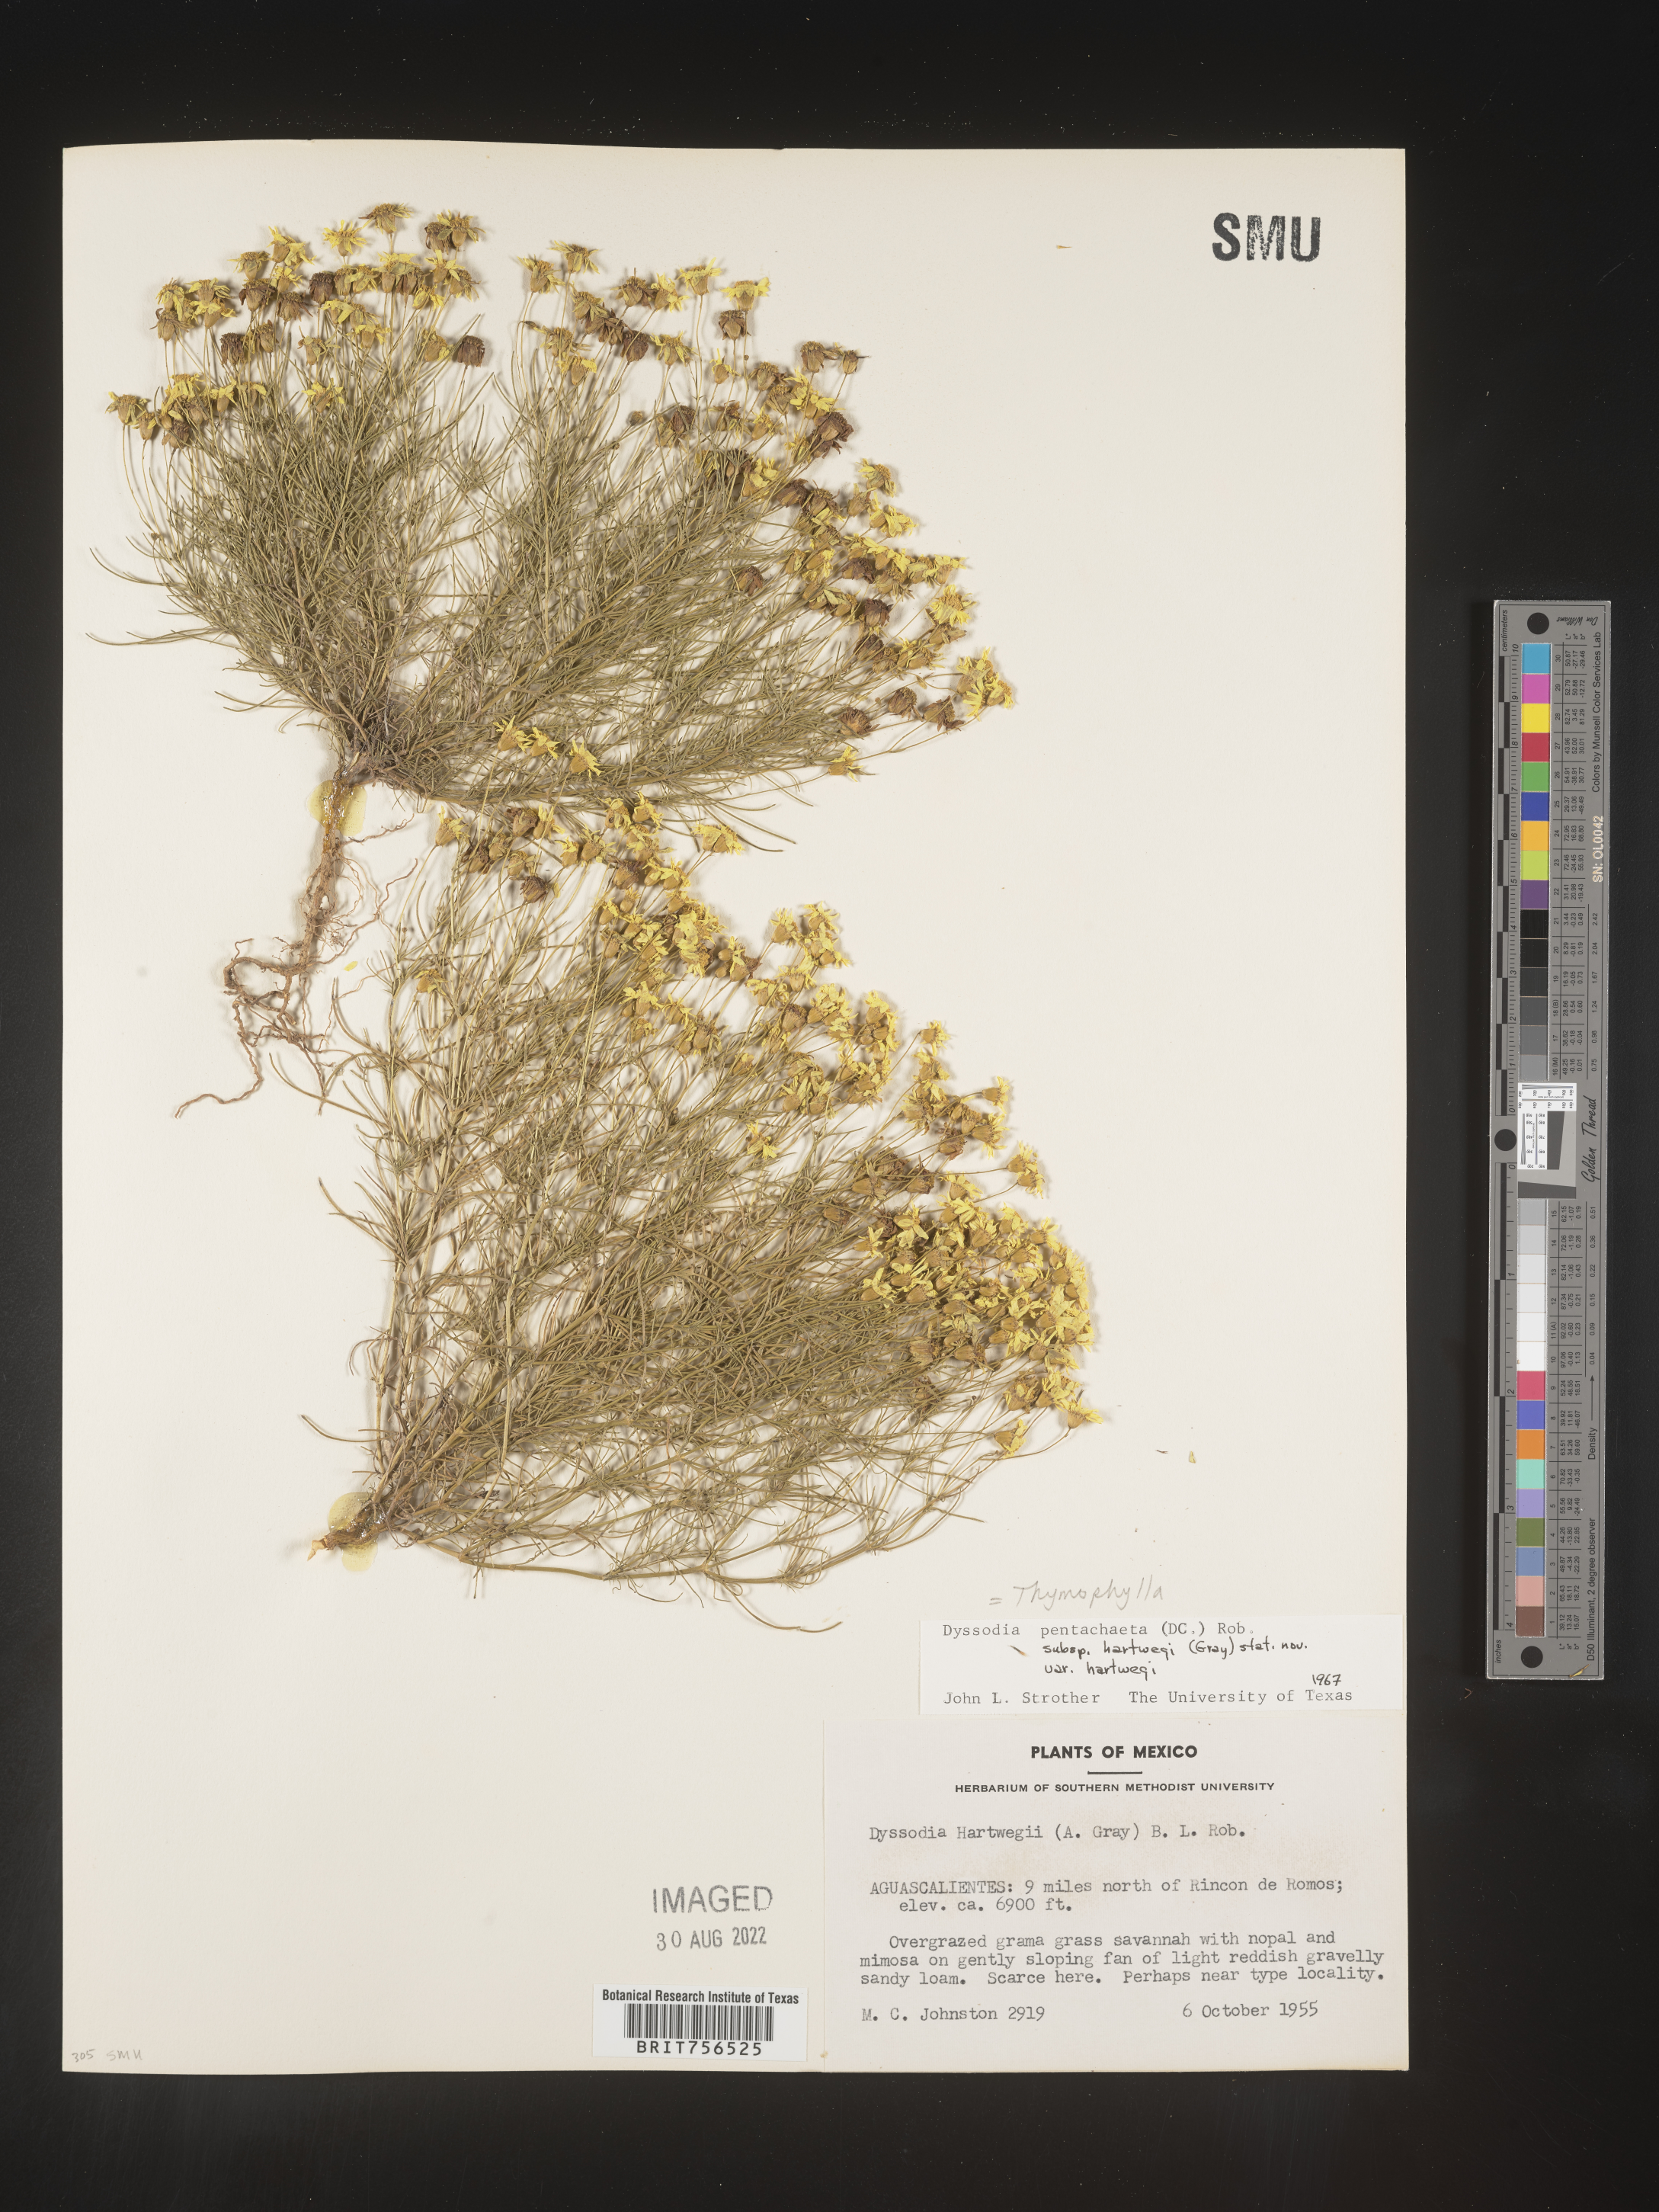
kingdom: Plantae
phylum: Tracheophyta
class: Magnoliopsida
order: Asterales
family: Asteraceae
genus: Thymophylla
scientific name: Thymophylla pentachaeta
